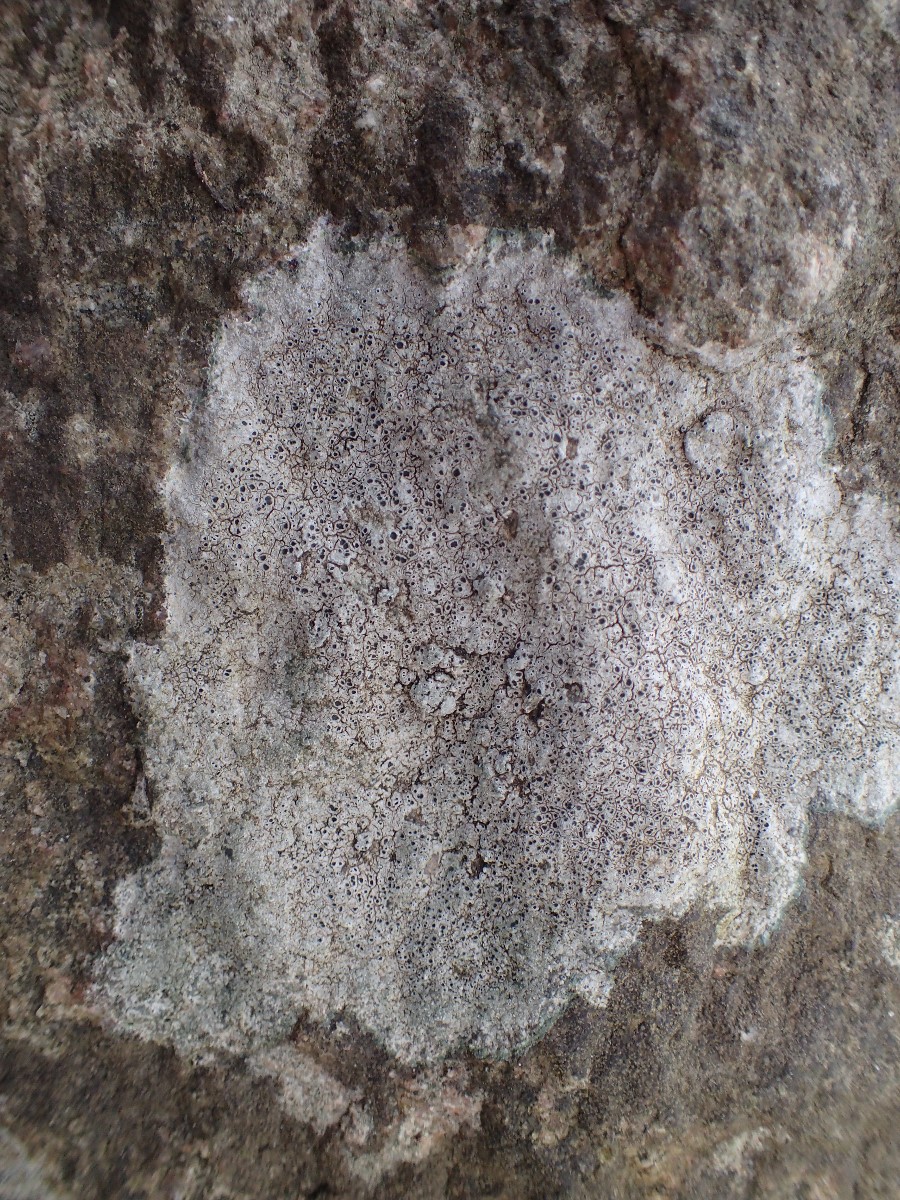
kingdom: Fungi
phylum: Ascomycota
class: Lecanoromycetes
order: Pertusariales
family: Megasporaceae
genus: Aspicilia
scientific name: Aspicilia cinerea
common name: grå hulskivelav
